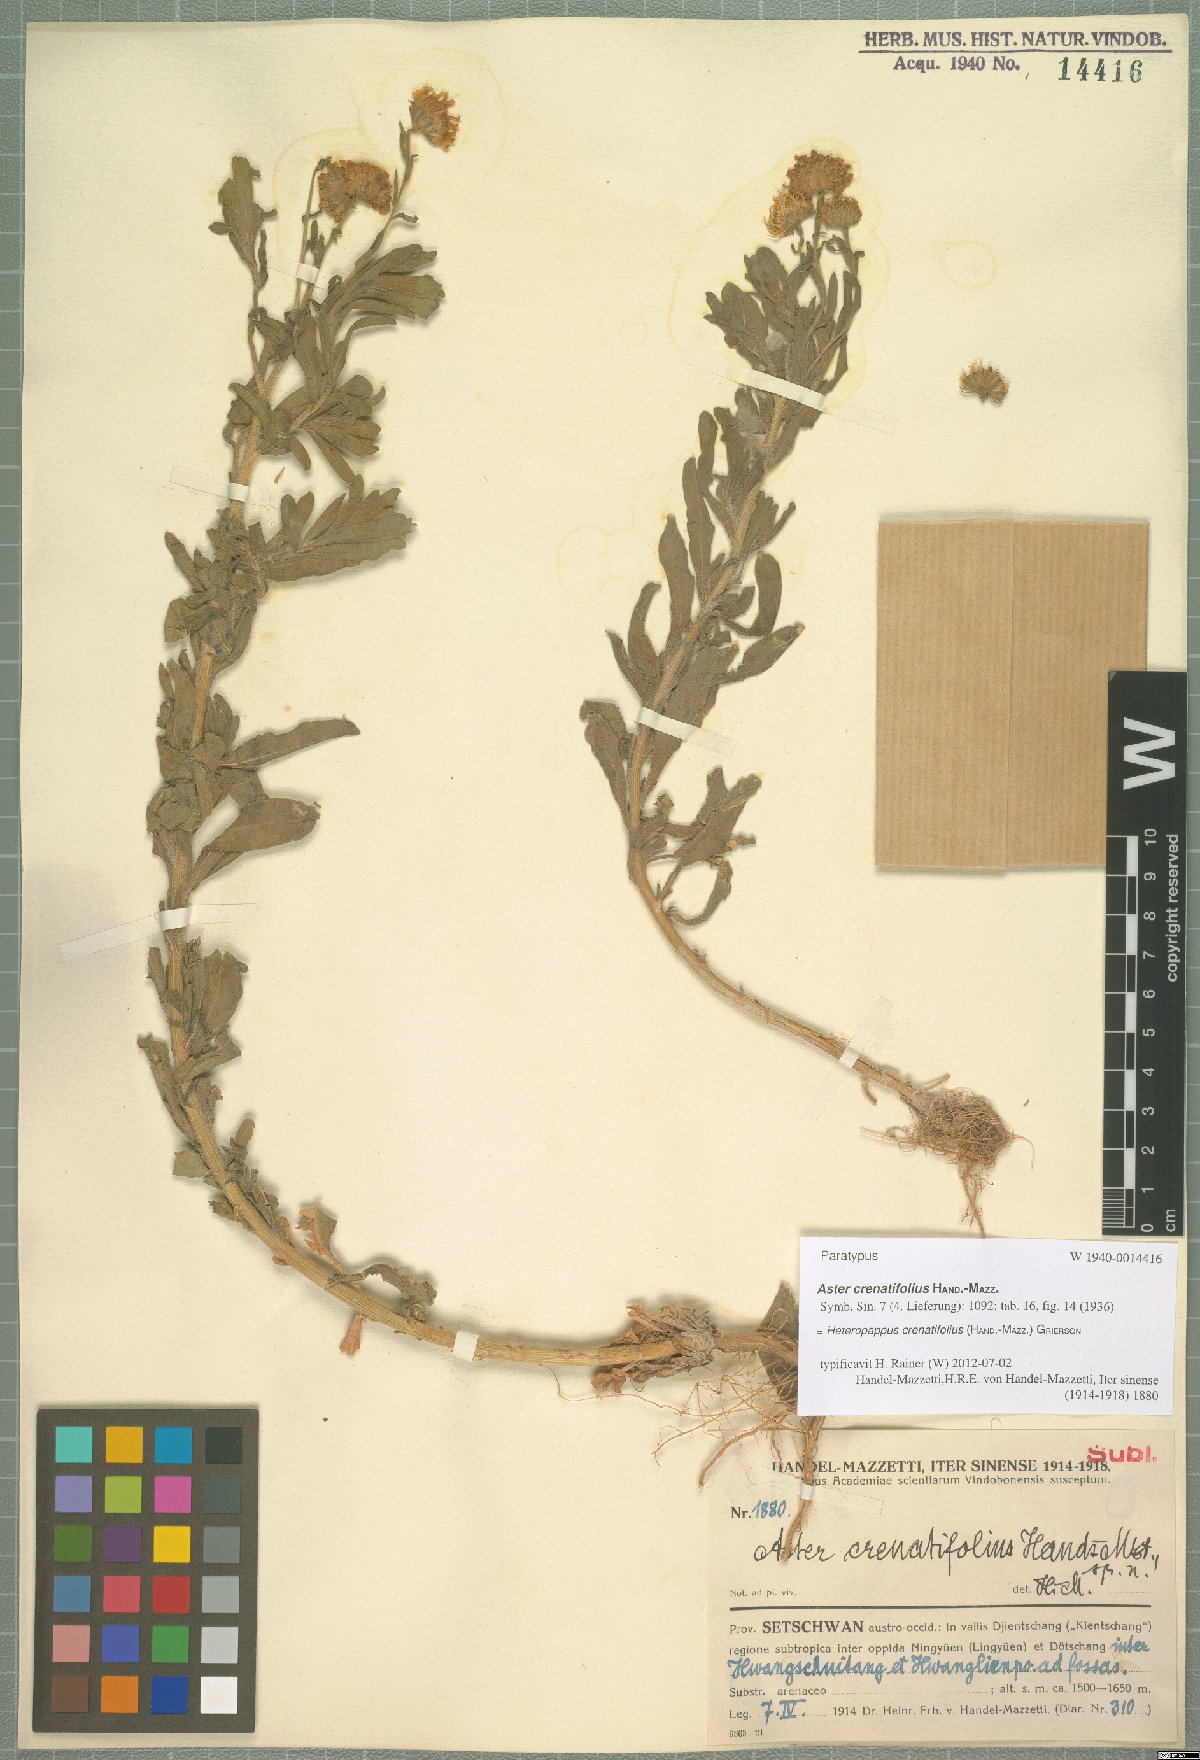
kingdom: Plantae
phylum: Tracheophyta
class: Magnoliopsida
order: Asterales
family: Asteraceae
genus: Heteropappus
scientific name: Heteropappus crenatifolius
